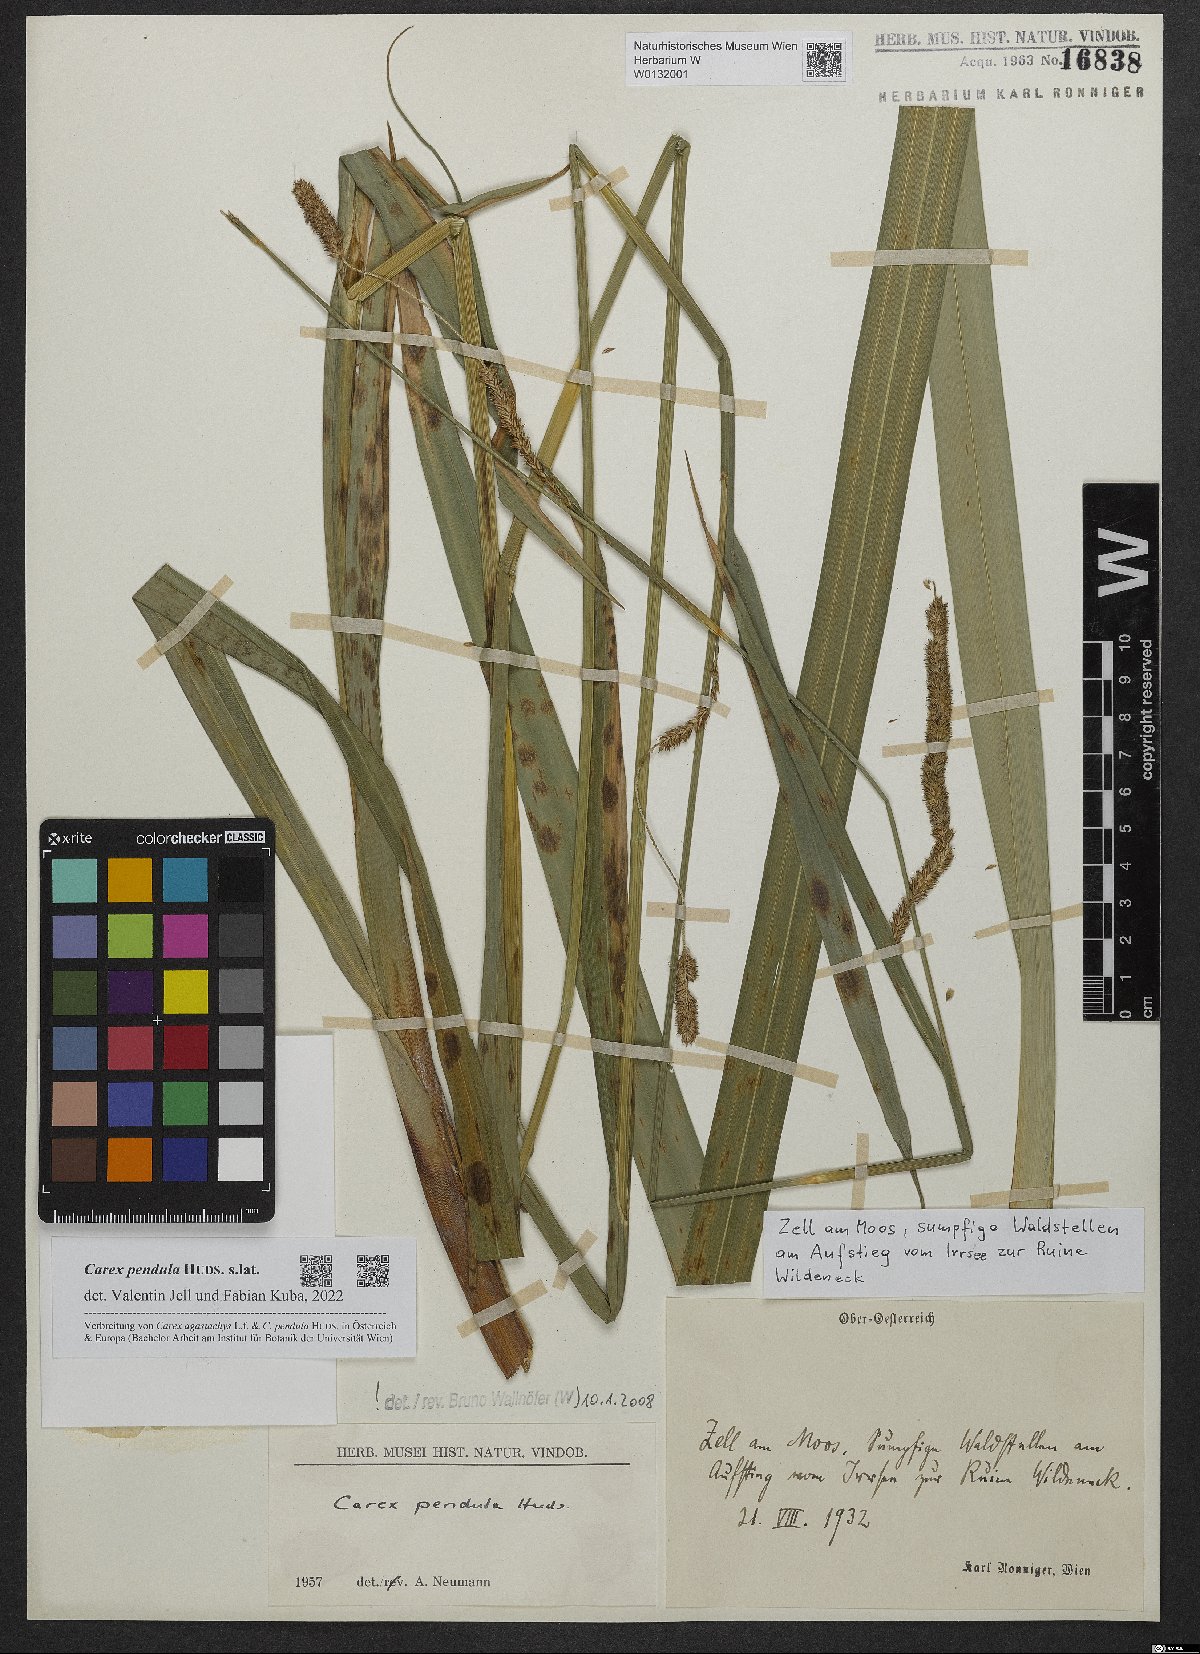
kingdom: Plantae
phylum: Tracheophyta
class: Liliopsida
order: Poales
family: Cyperaceae
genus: Carex
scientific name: Carex pendula
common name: Pendulous sedge
